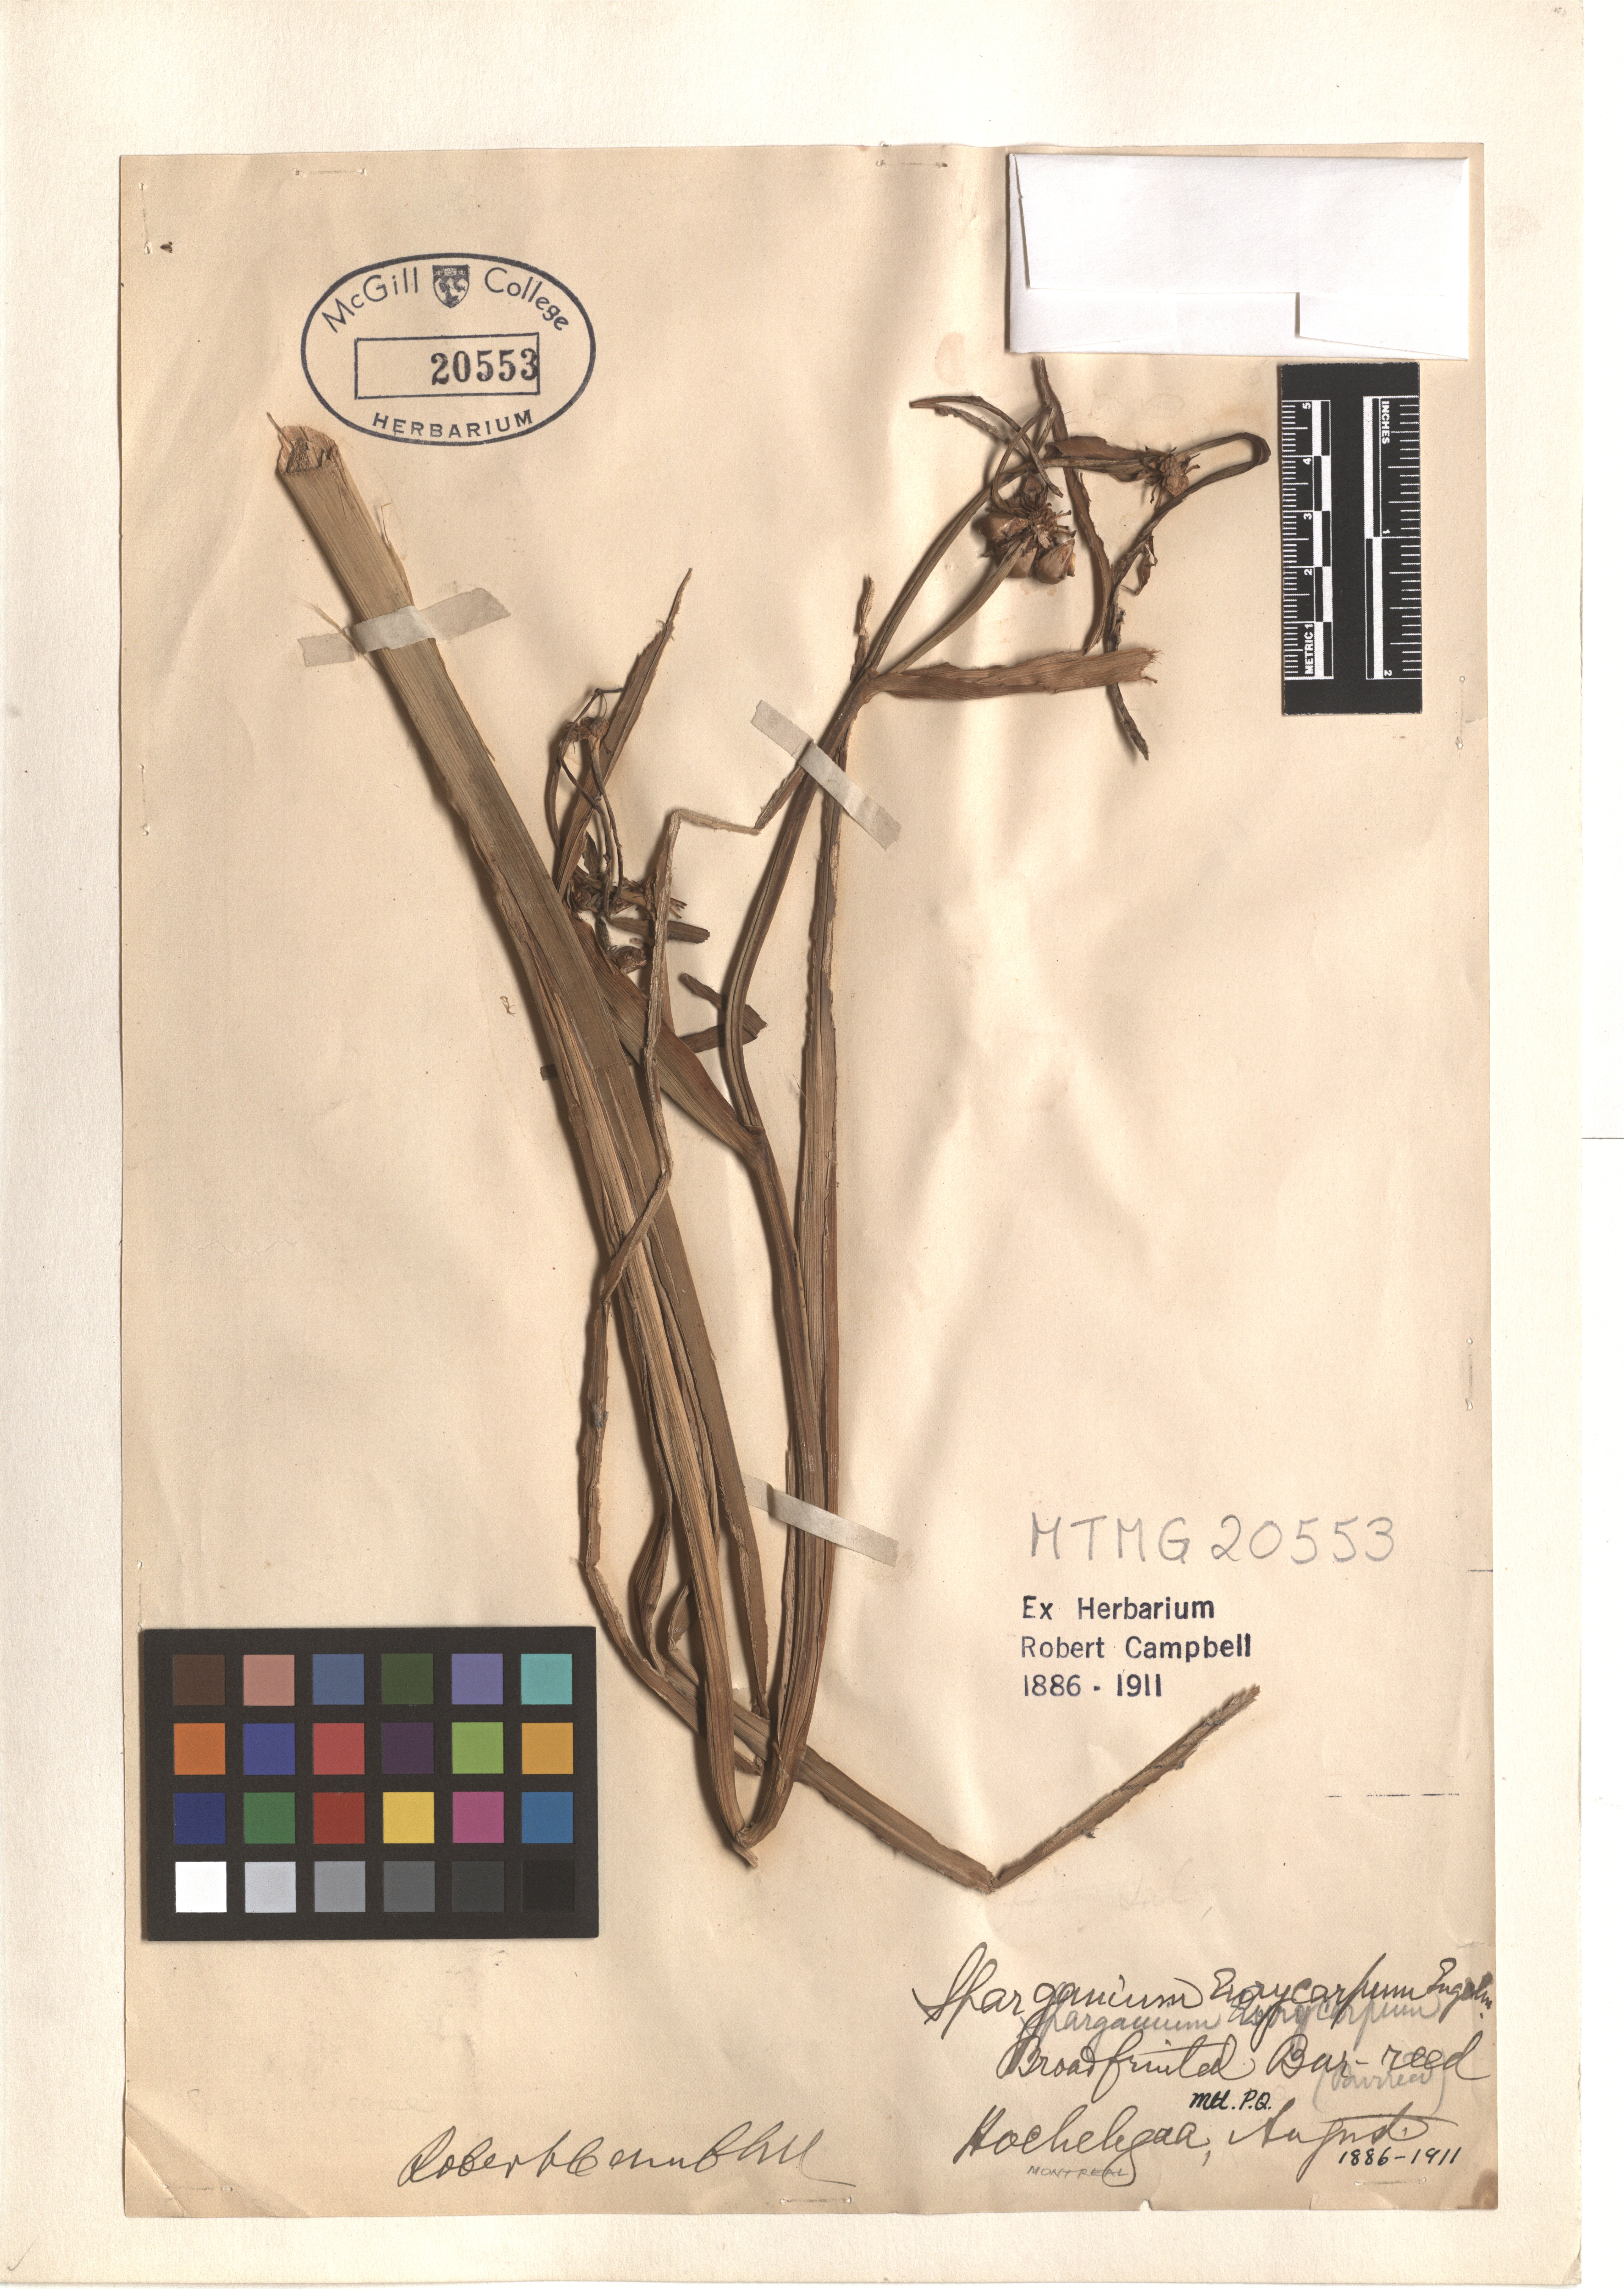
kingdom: Plantae
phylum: Tracheophyta
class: Liliopsida
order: Poales
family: Typhaceae
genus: Sparganium
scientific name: Sparganium eurycarpum
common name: Broad-fruited burreed
